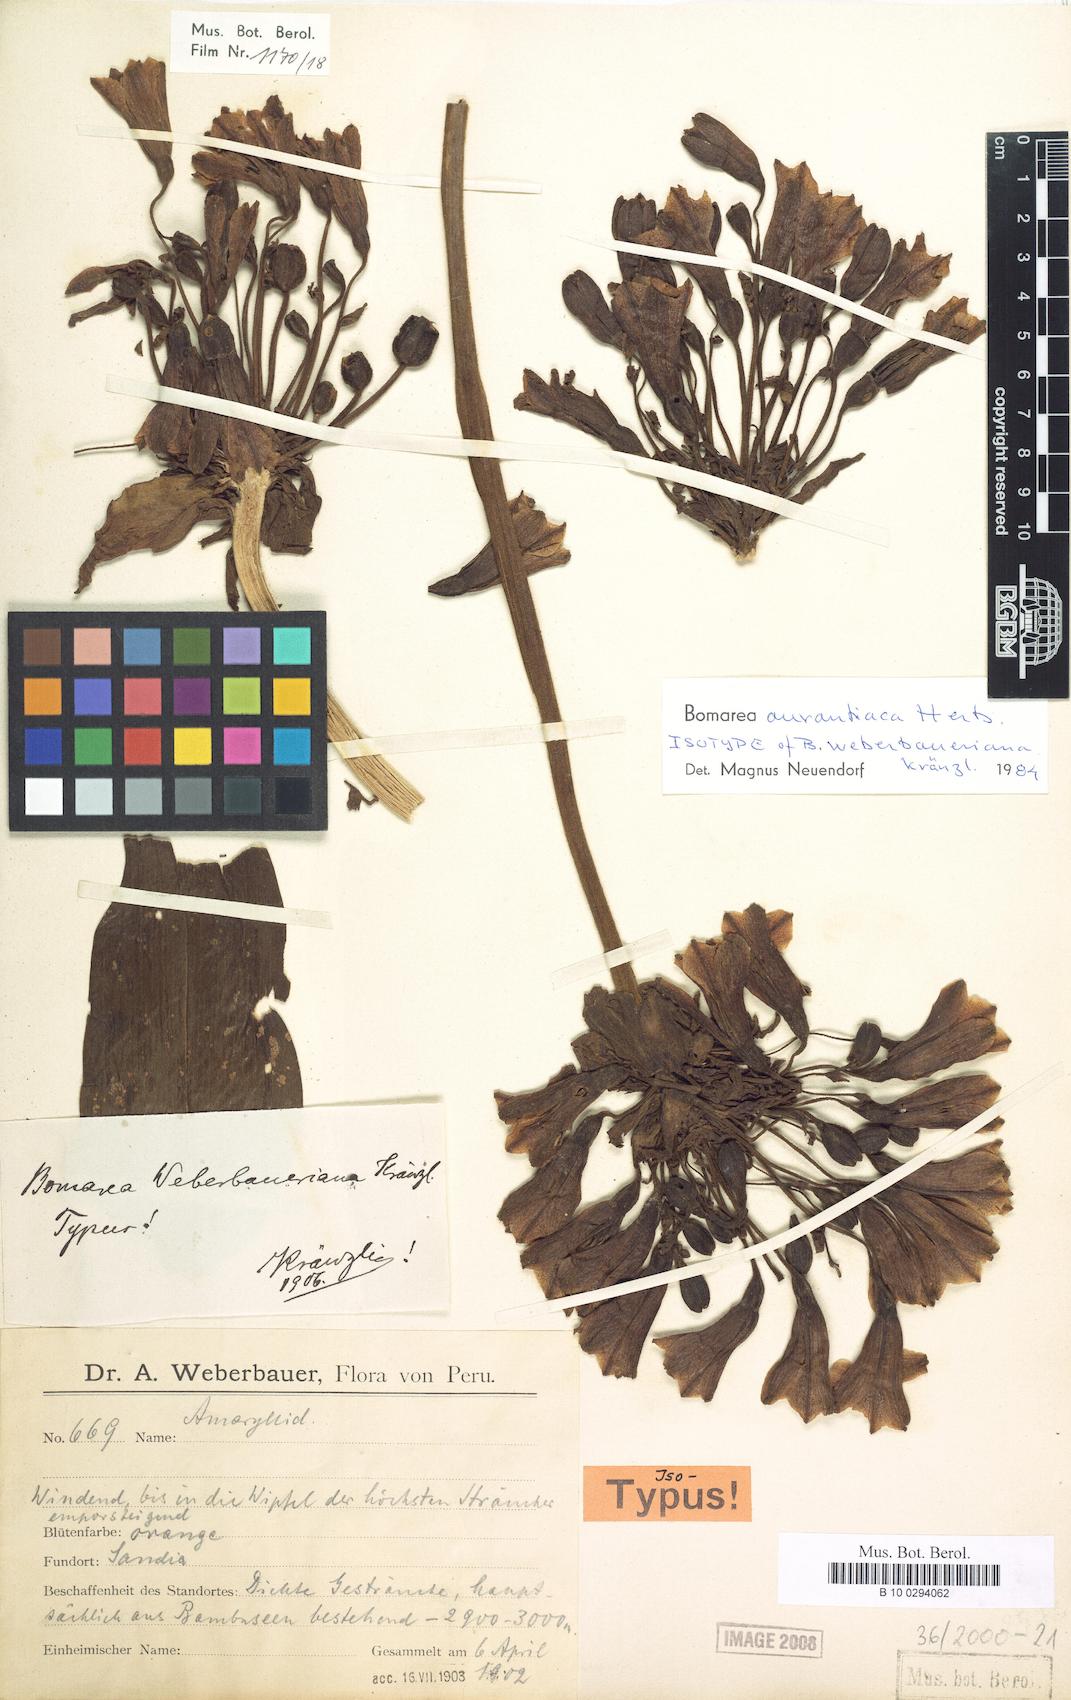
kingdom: Plantae
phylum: Tracheophyta
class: Liliopsida
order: Liliales
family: Alstroemeriaceae
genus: Bomarea
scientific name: Bomarea aurantiaca
